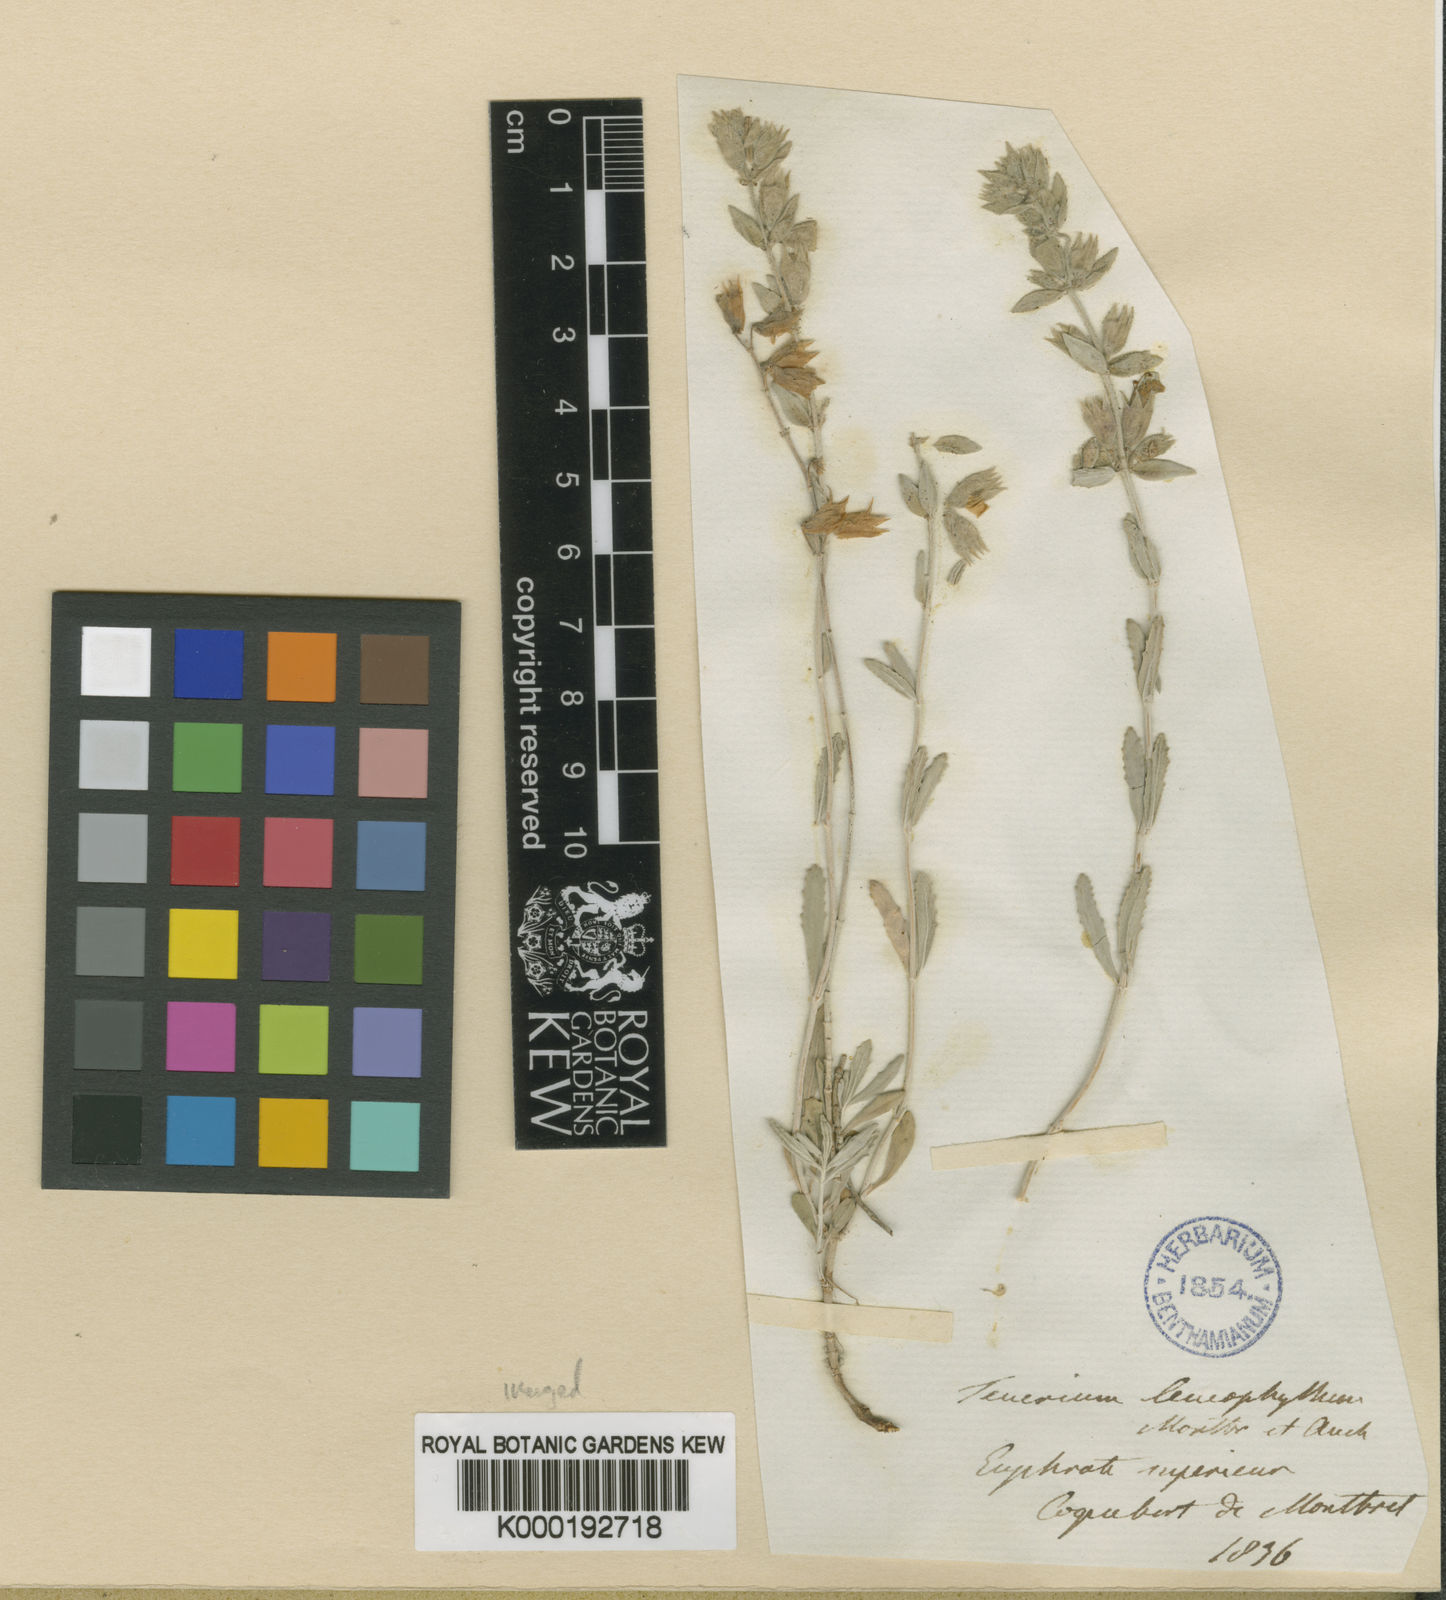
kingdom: Plantae
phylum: Tracheophyta
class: Magnoliopsida
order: Lamiales
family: Lamiaceae
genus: Teucrium
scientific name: Teucrium
